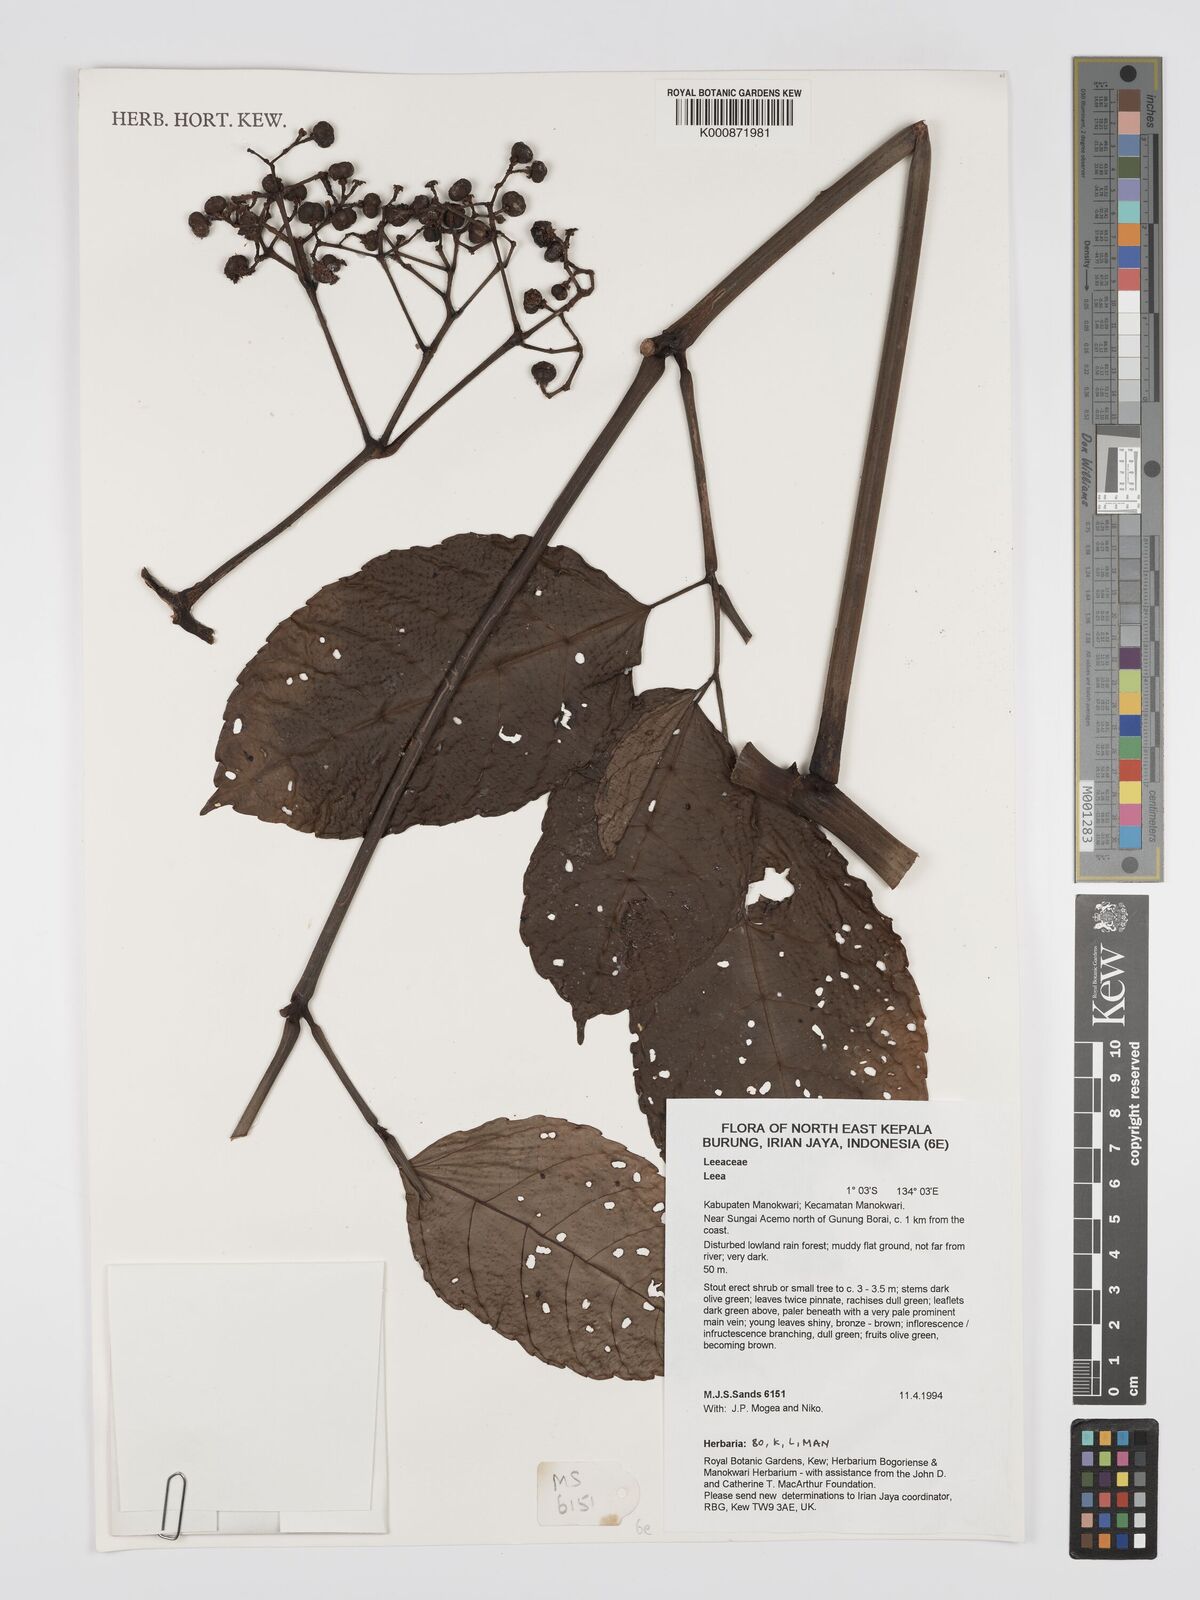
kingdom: Plantae
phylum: Tracheophyta
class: Magnoliopsida
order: Vitales
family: Vitaceae
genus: Leea
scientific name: Leea
